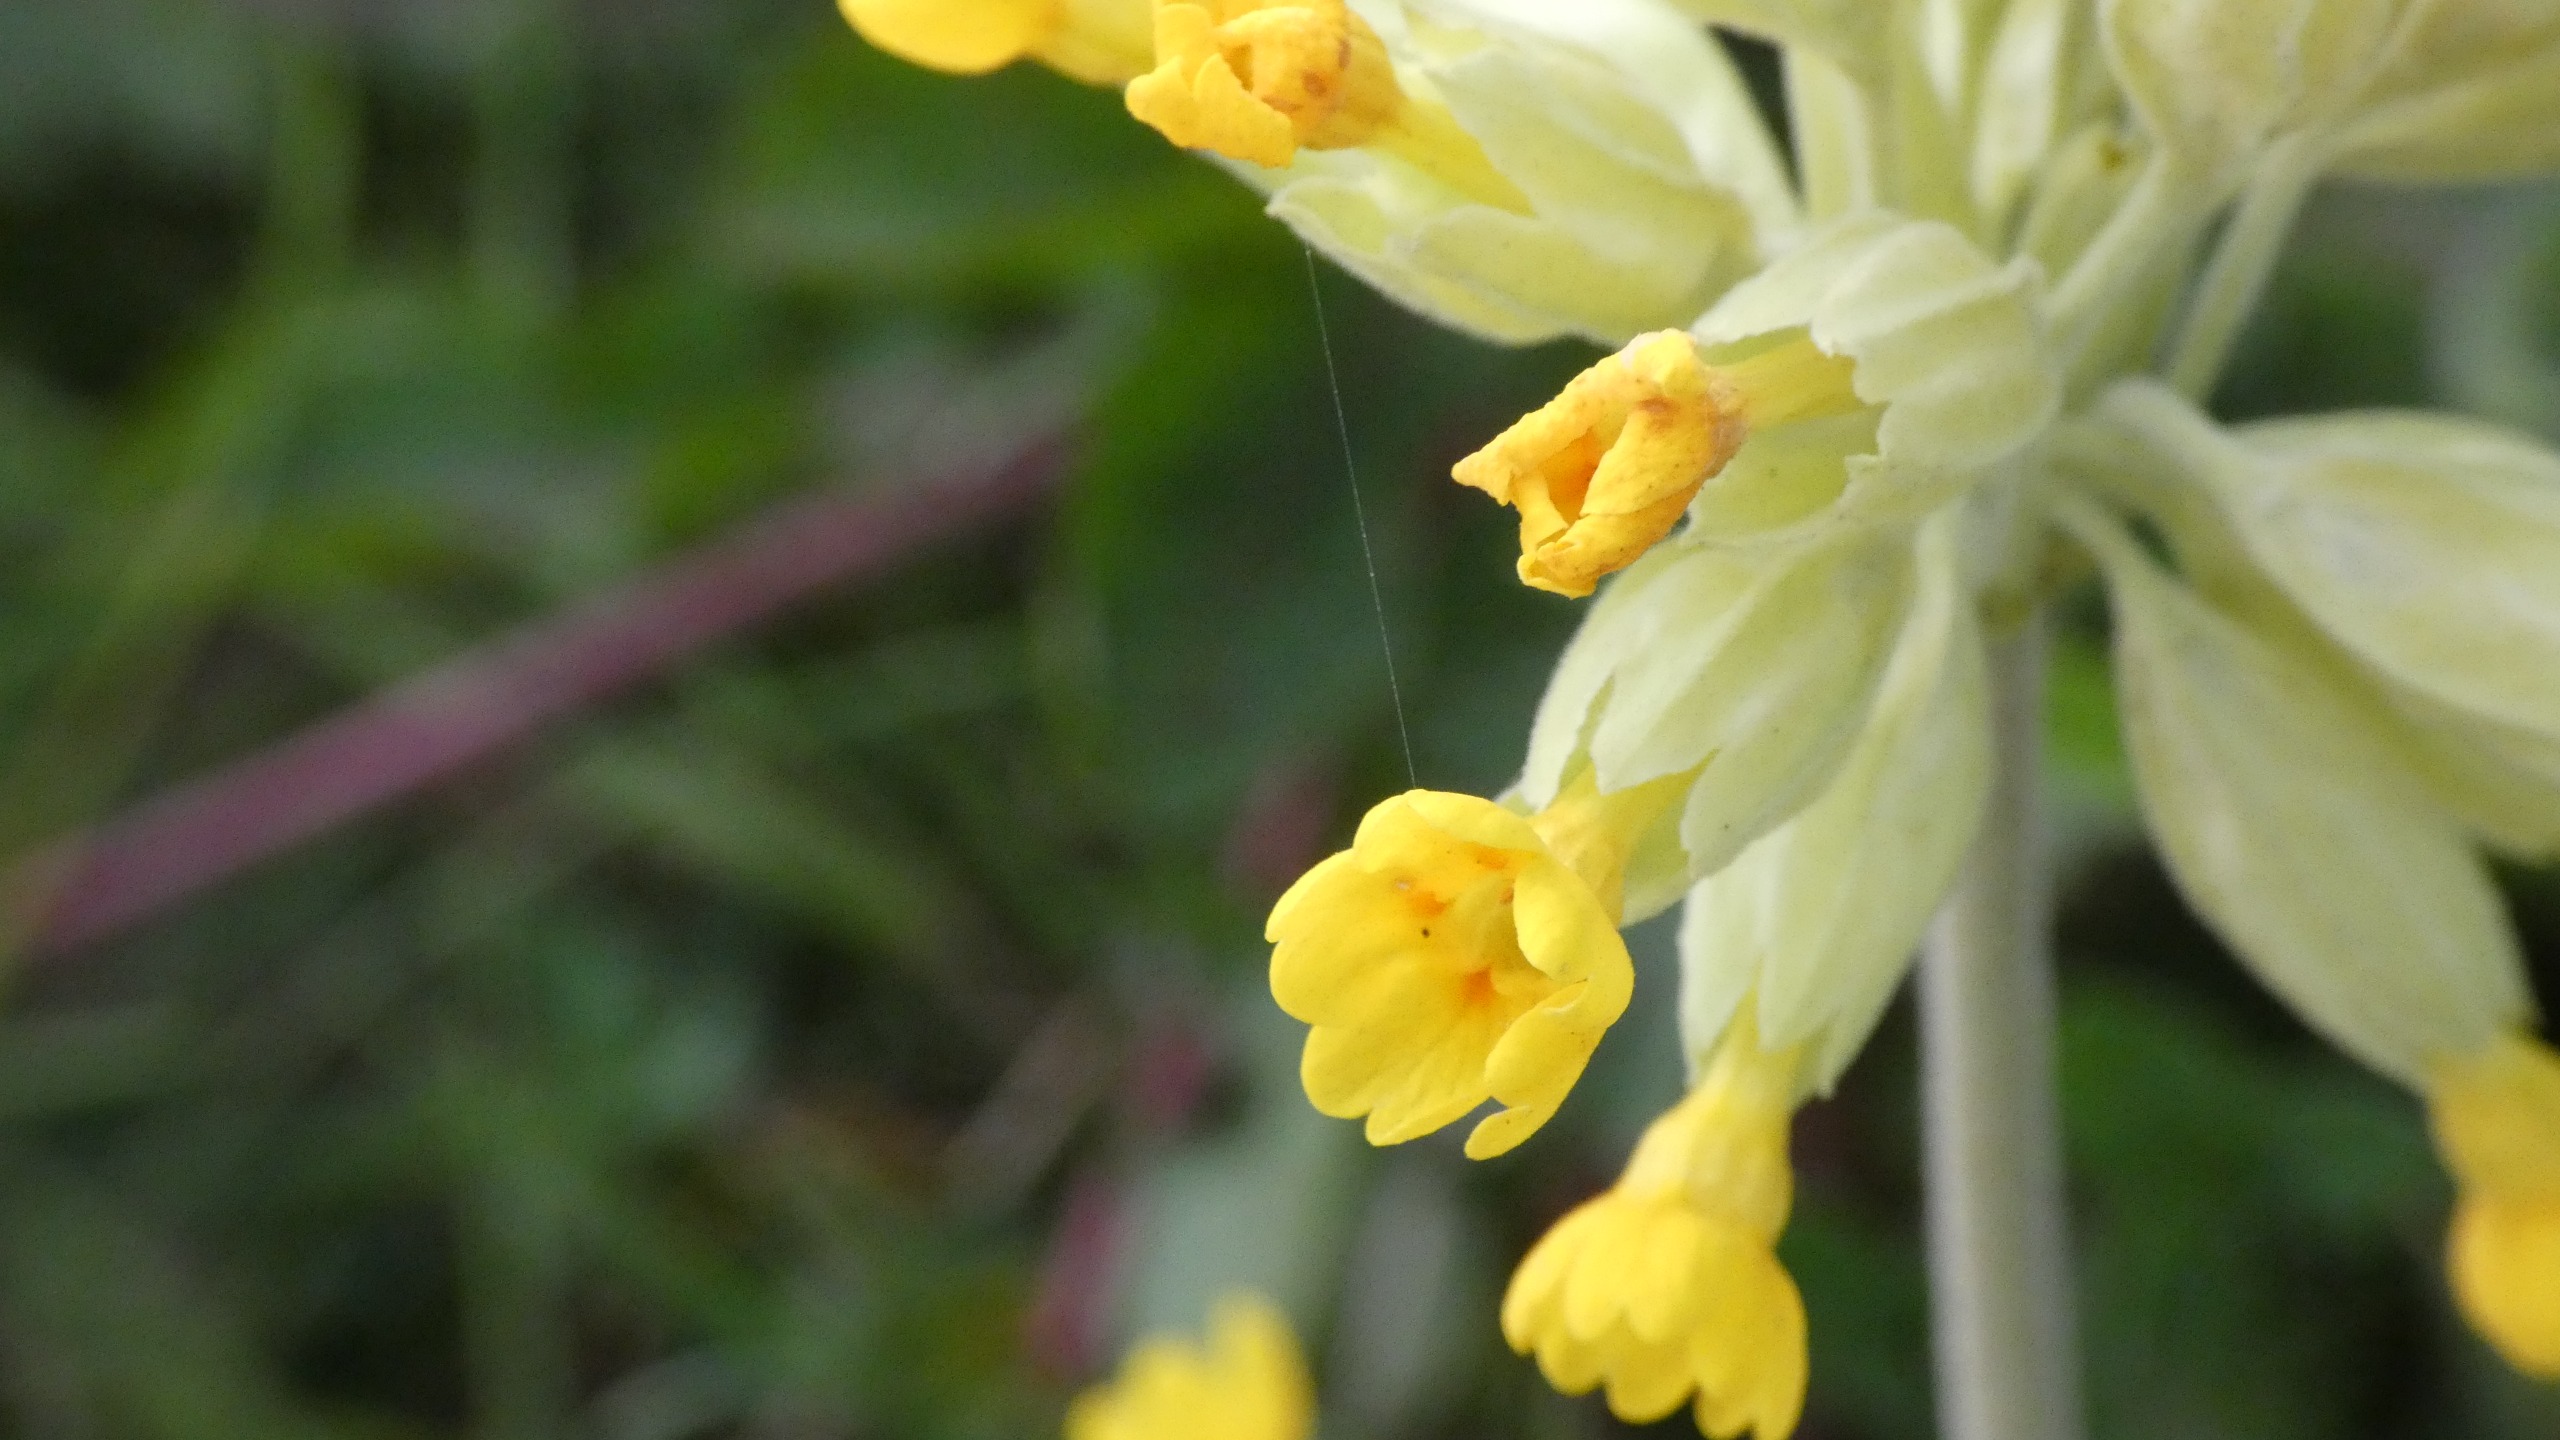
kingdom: Plantae
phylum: Tracheophyta
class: Magnoliopsida
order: Ericales
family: Primulaceae
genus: Primula
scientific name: Primula veris
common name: Hulkravet kodriver
